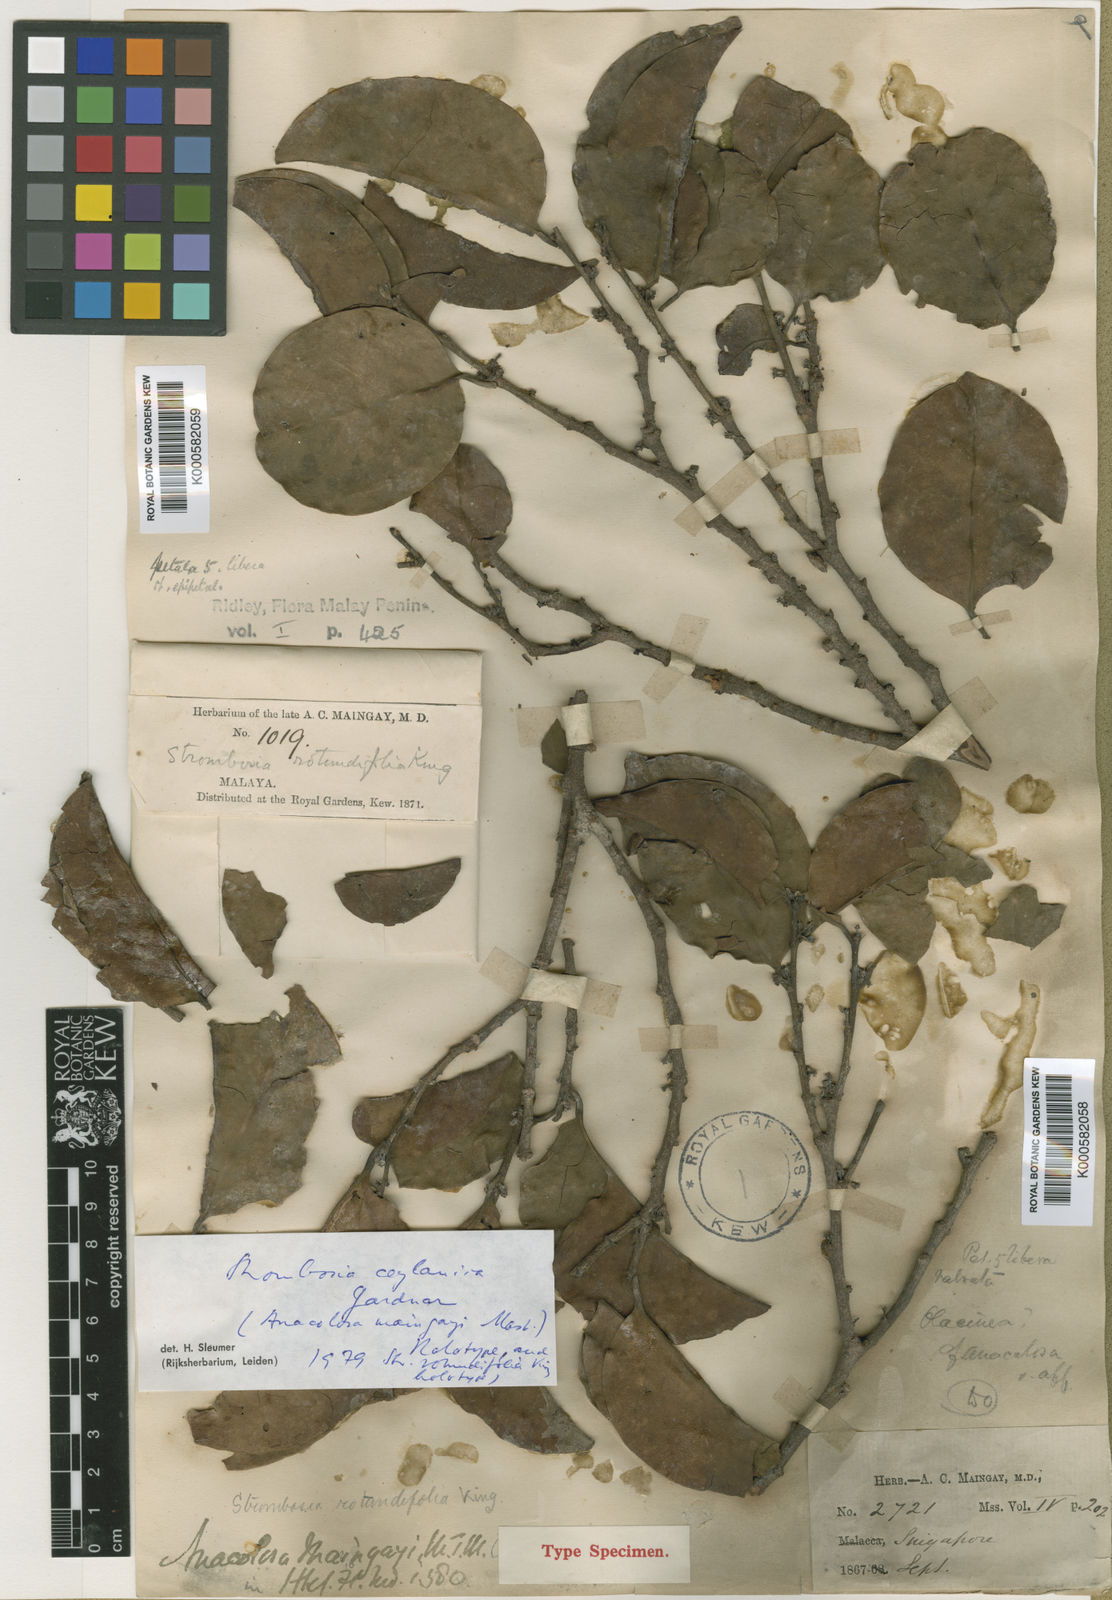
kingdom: Plantae
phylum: Tracheophyta
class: Magnoliopsida
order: Santalales
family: Strombosiaceae
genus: Strombosia
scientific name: Strombosia ceylanica
